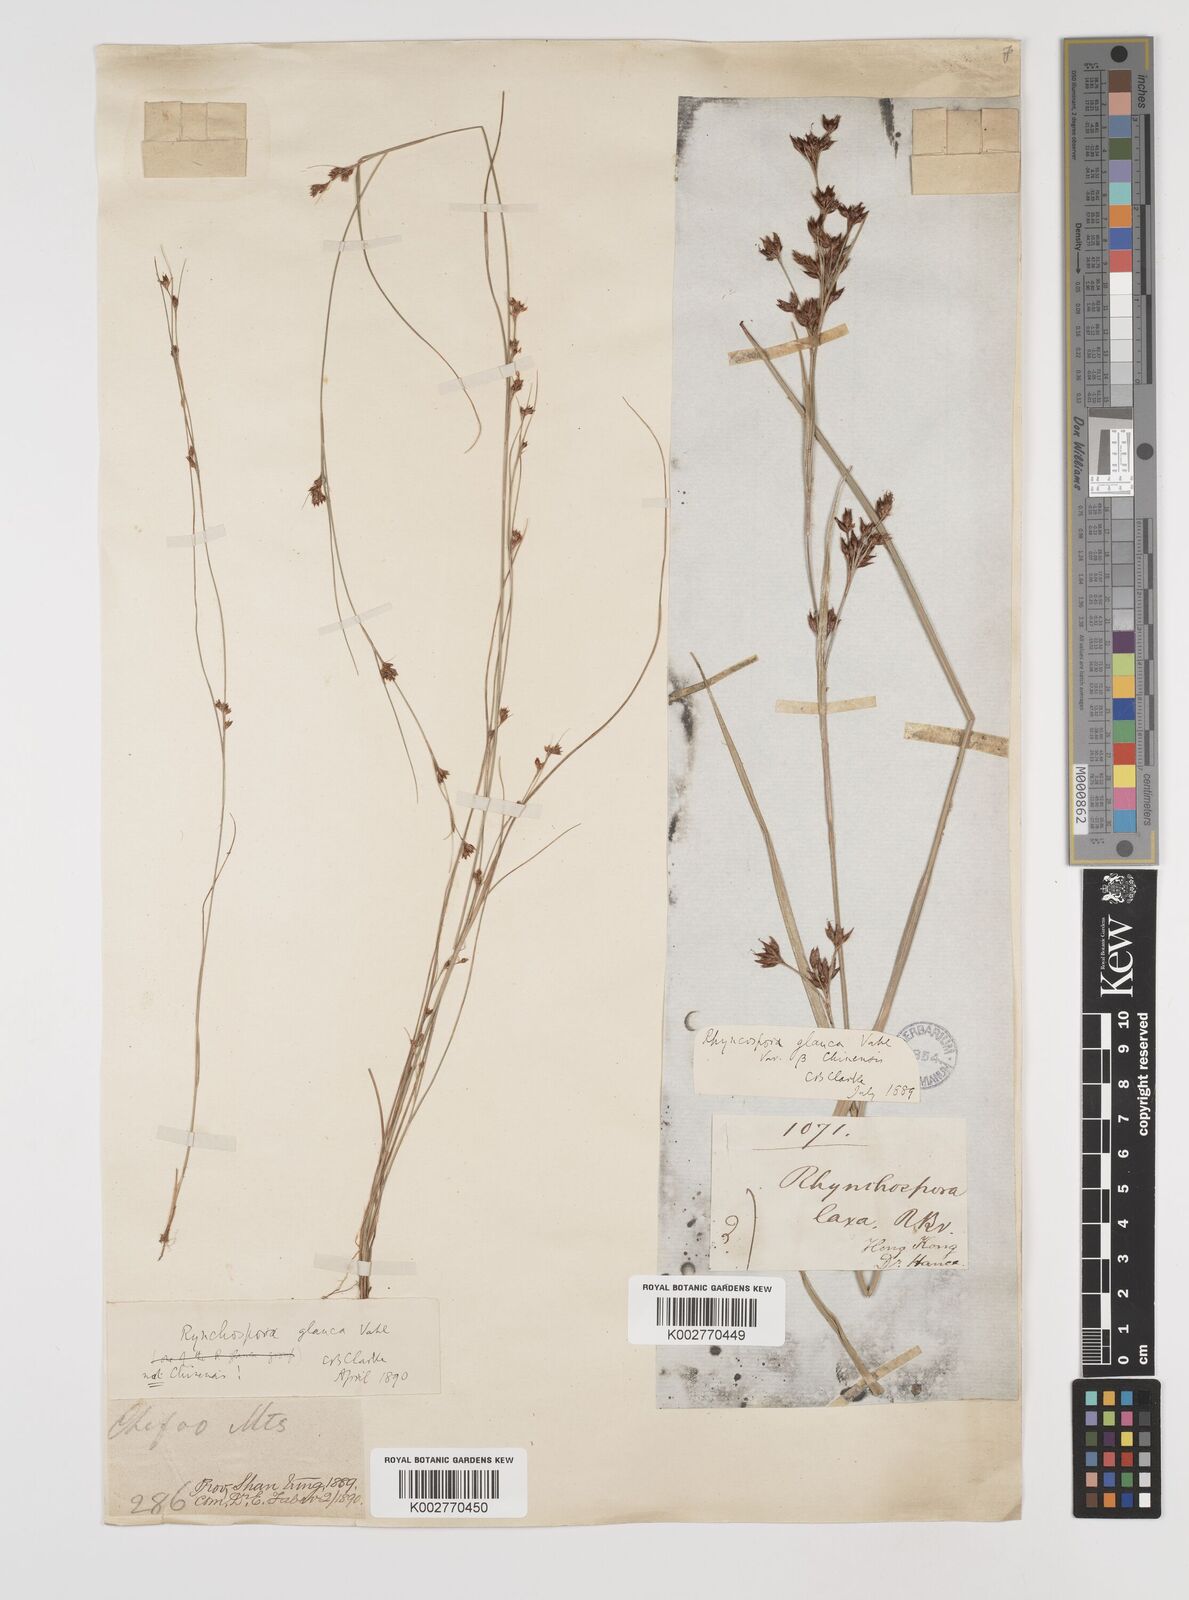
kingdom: Plantae
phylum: Tracheophyta
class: Liliopsida
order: Poales
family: Cyperaceae
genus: Rhynchospora
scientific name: Rhynchospora
